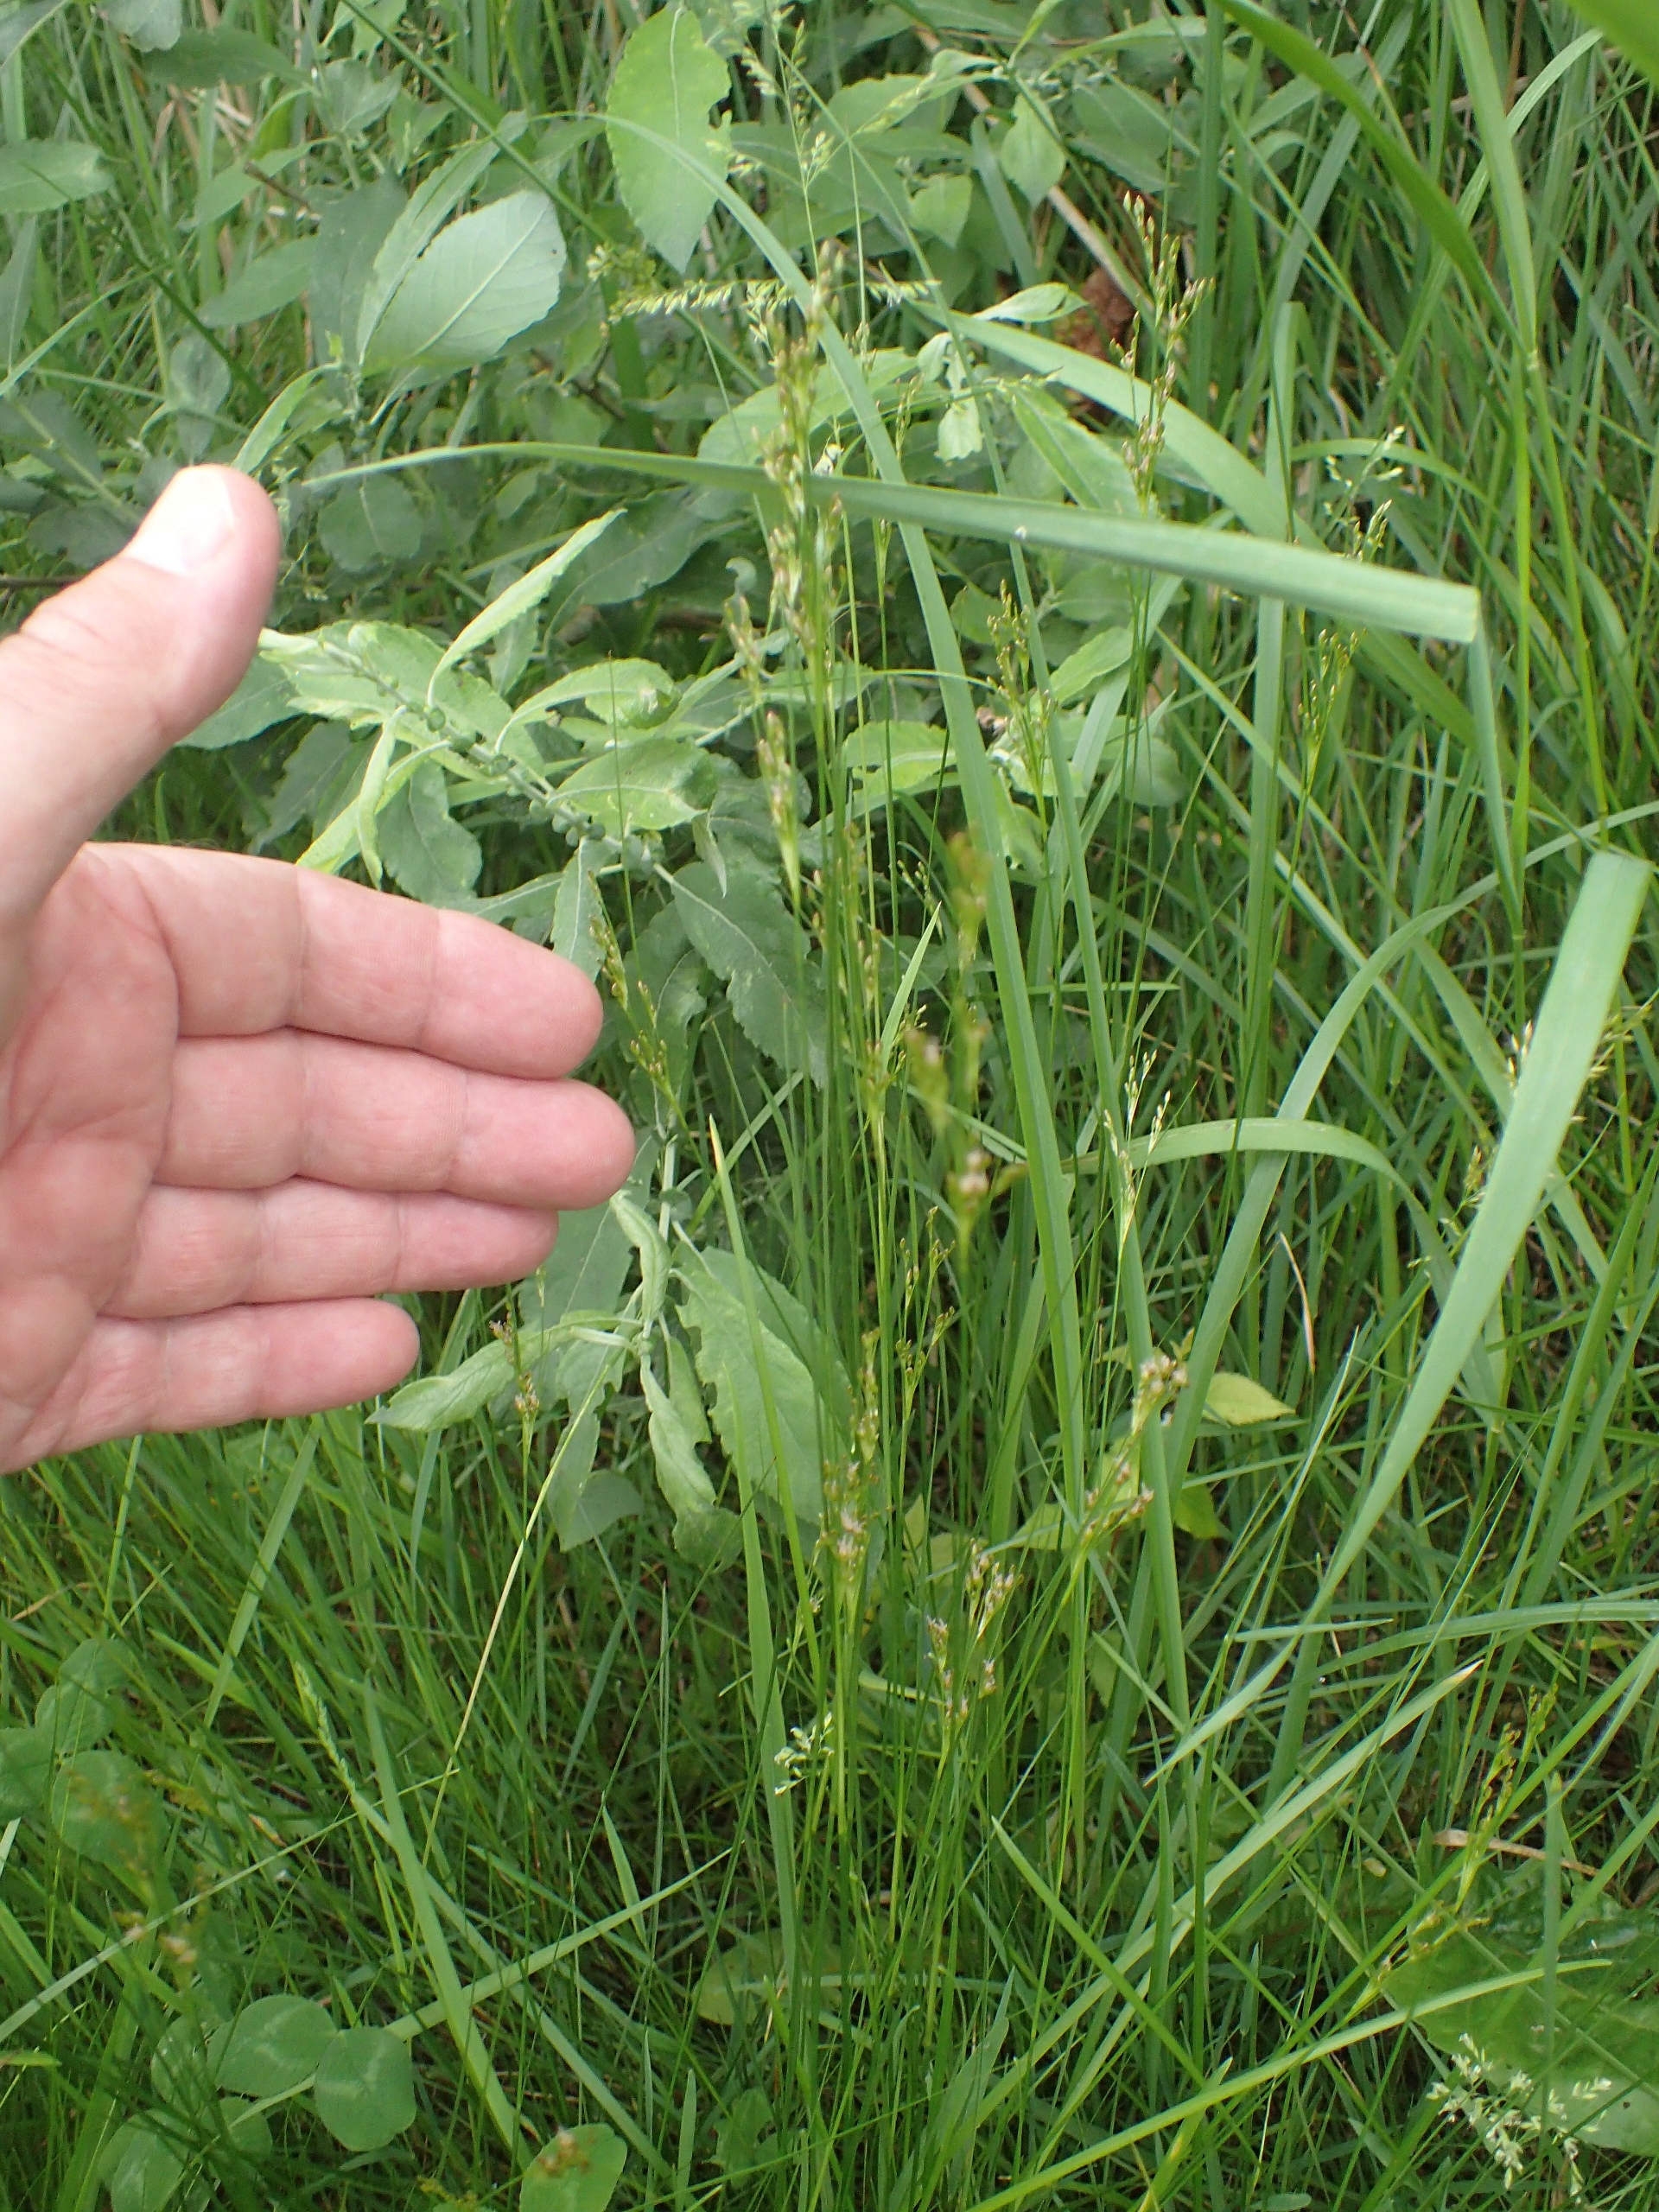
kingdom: Plantae
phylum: Tracheophyta
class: Liliopsida
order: Poales
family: Juncaceae
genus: Juncus
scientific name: Juncus tenuis
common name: Tue-siv
